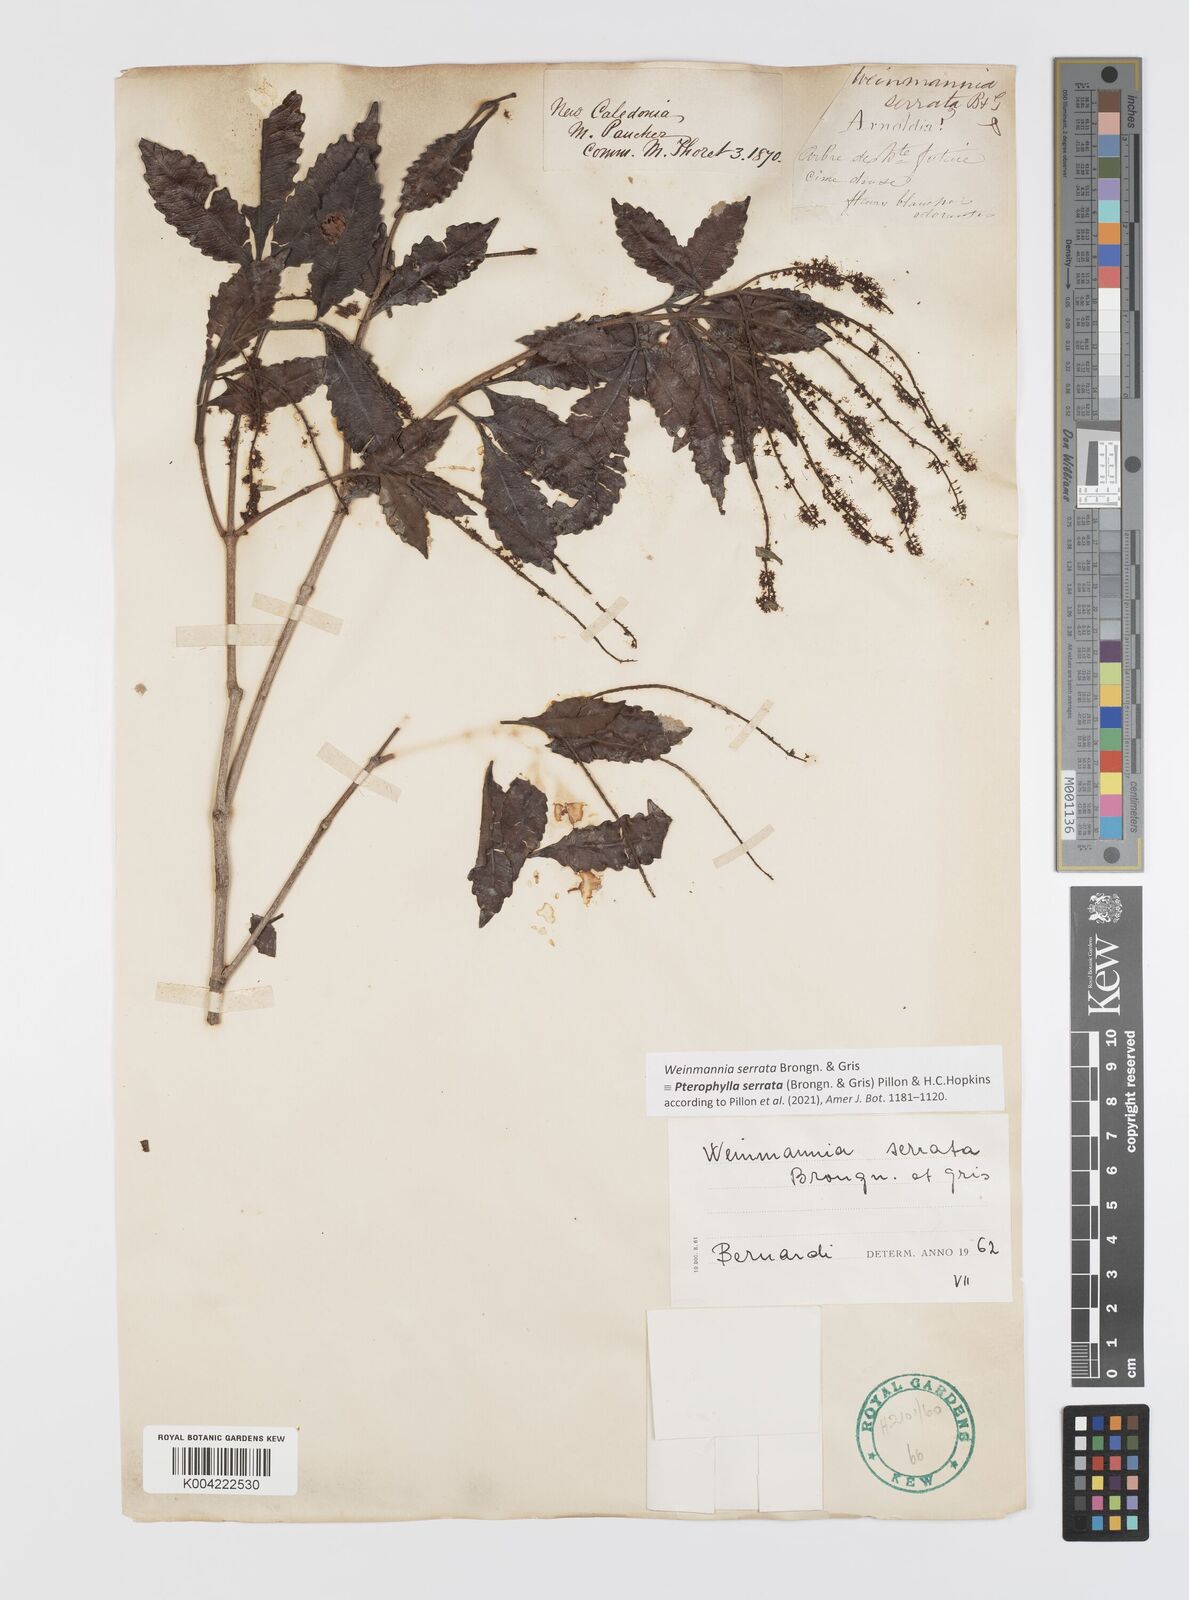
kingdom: Plantae
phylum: Tracheophyta
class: Magnoliopsida
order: Oxalidales
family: Cunoniaceae
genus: Pterophylla
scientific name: Pterophylla serrata
